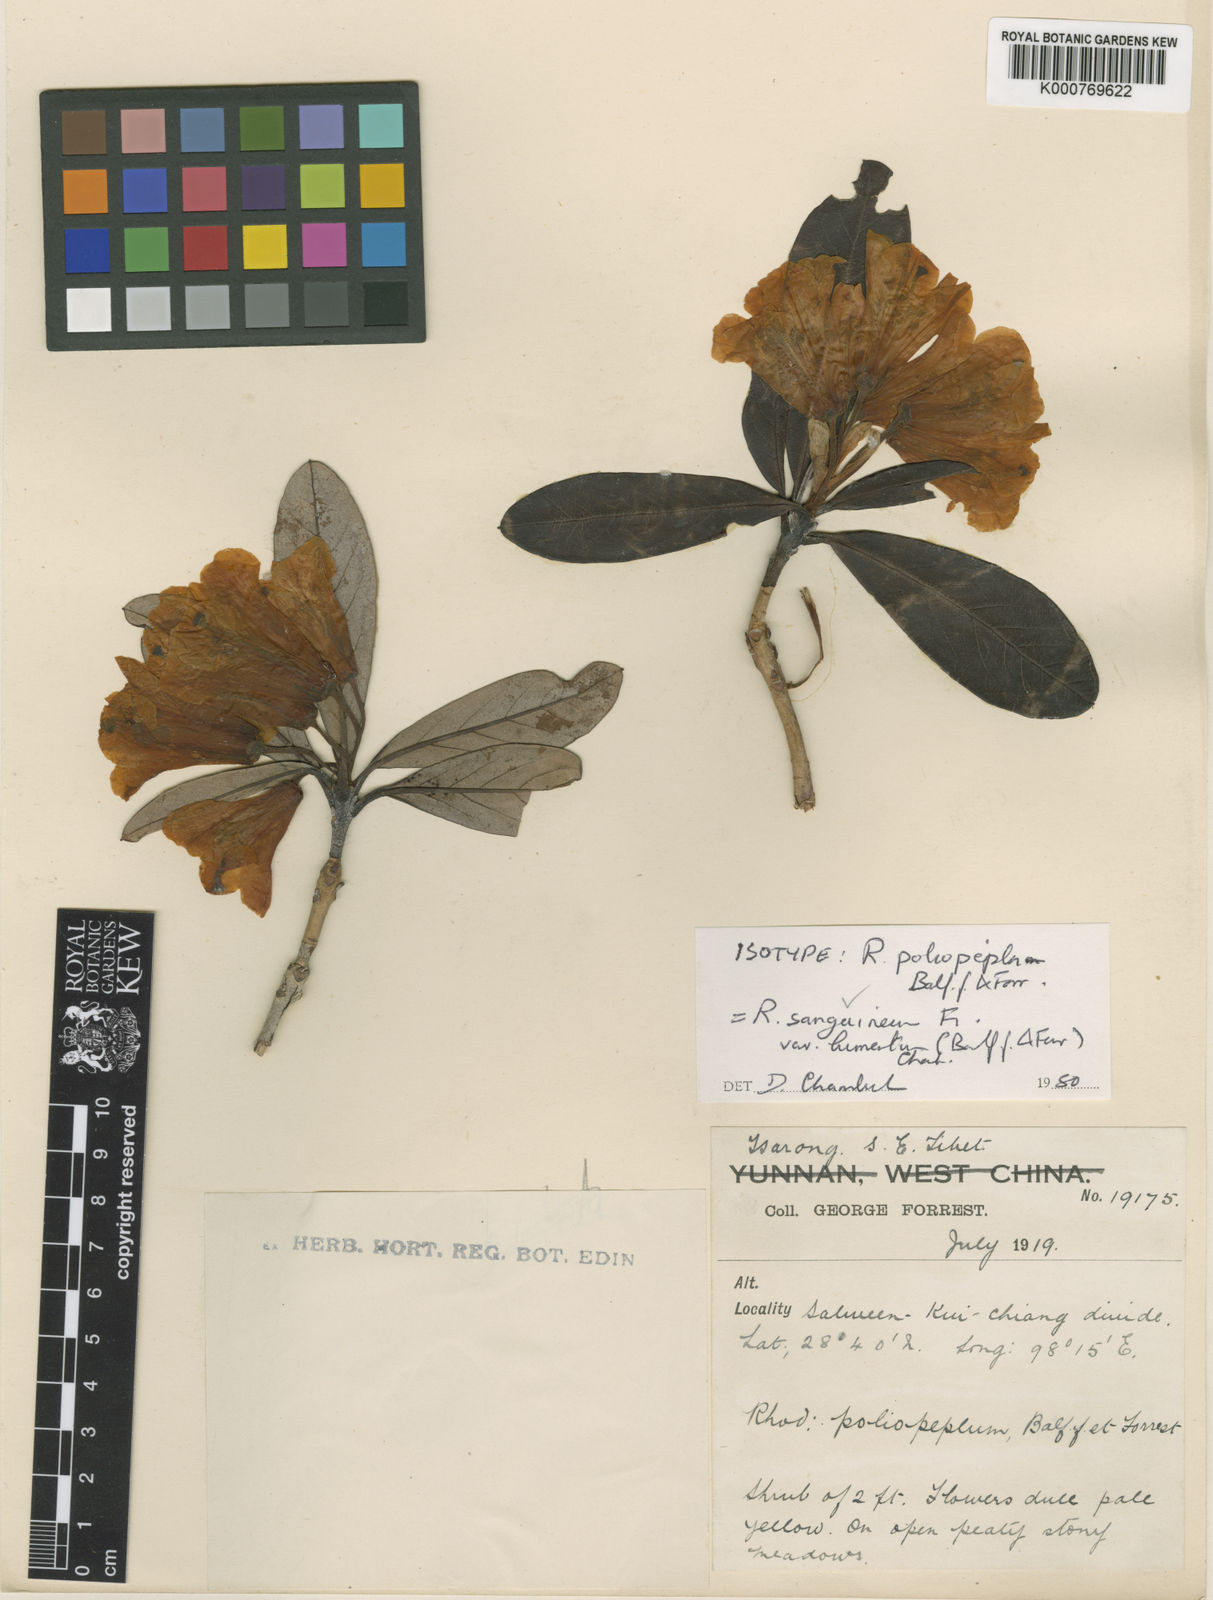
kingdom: Plantae
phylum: Tracheophyta
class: Magnoliopsida
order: Ericales
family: Ericaceae
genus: Rhododendron
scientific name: Rhododendron sanguineum
